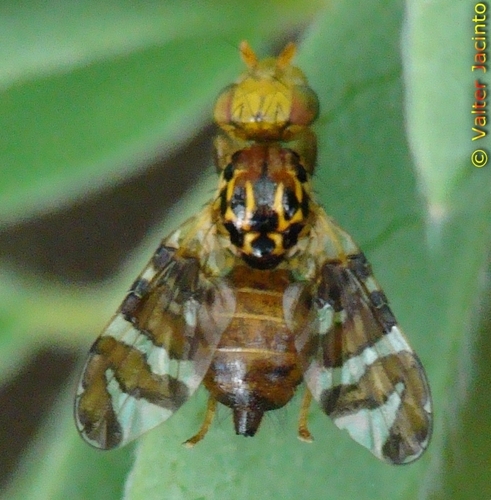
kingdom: Animalia
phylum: Arthropoda
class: Insecta
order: Diptera
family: Tephritidae
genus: Carpomya
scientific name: Carpomya wiedemanni
